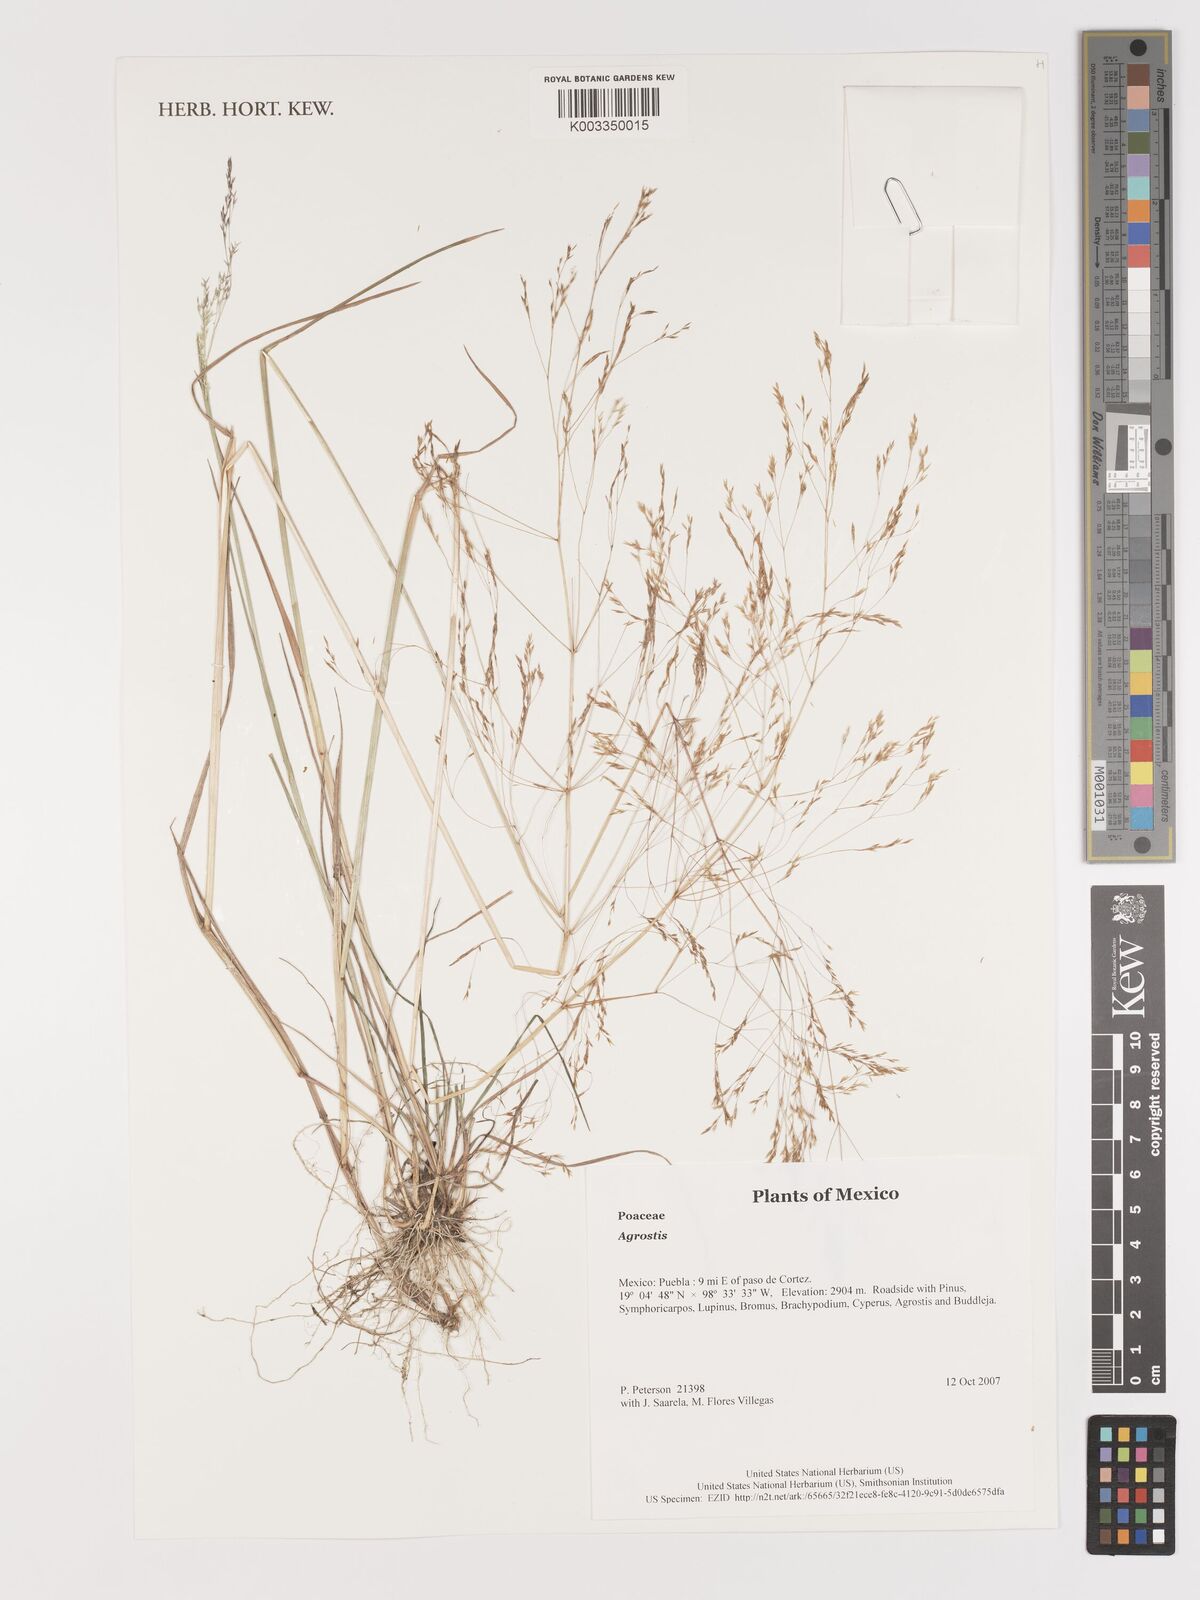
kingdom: Plantae
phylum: Tracheophyta
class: Liliopsida
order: Poales
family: Poaceae
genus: Agrostis
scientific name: Agrostis
